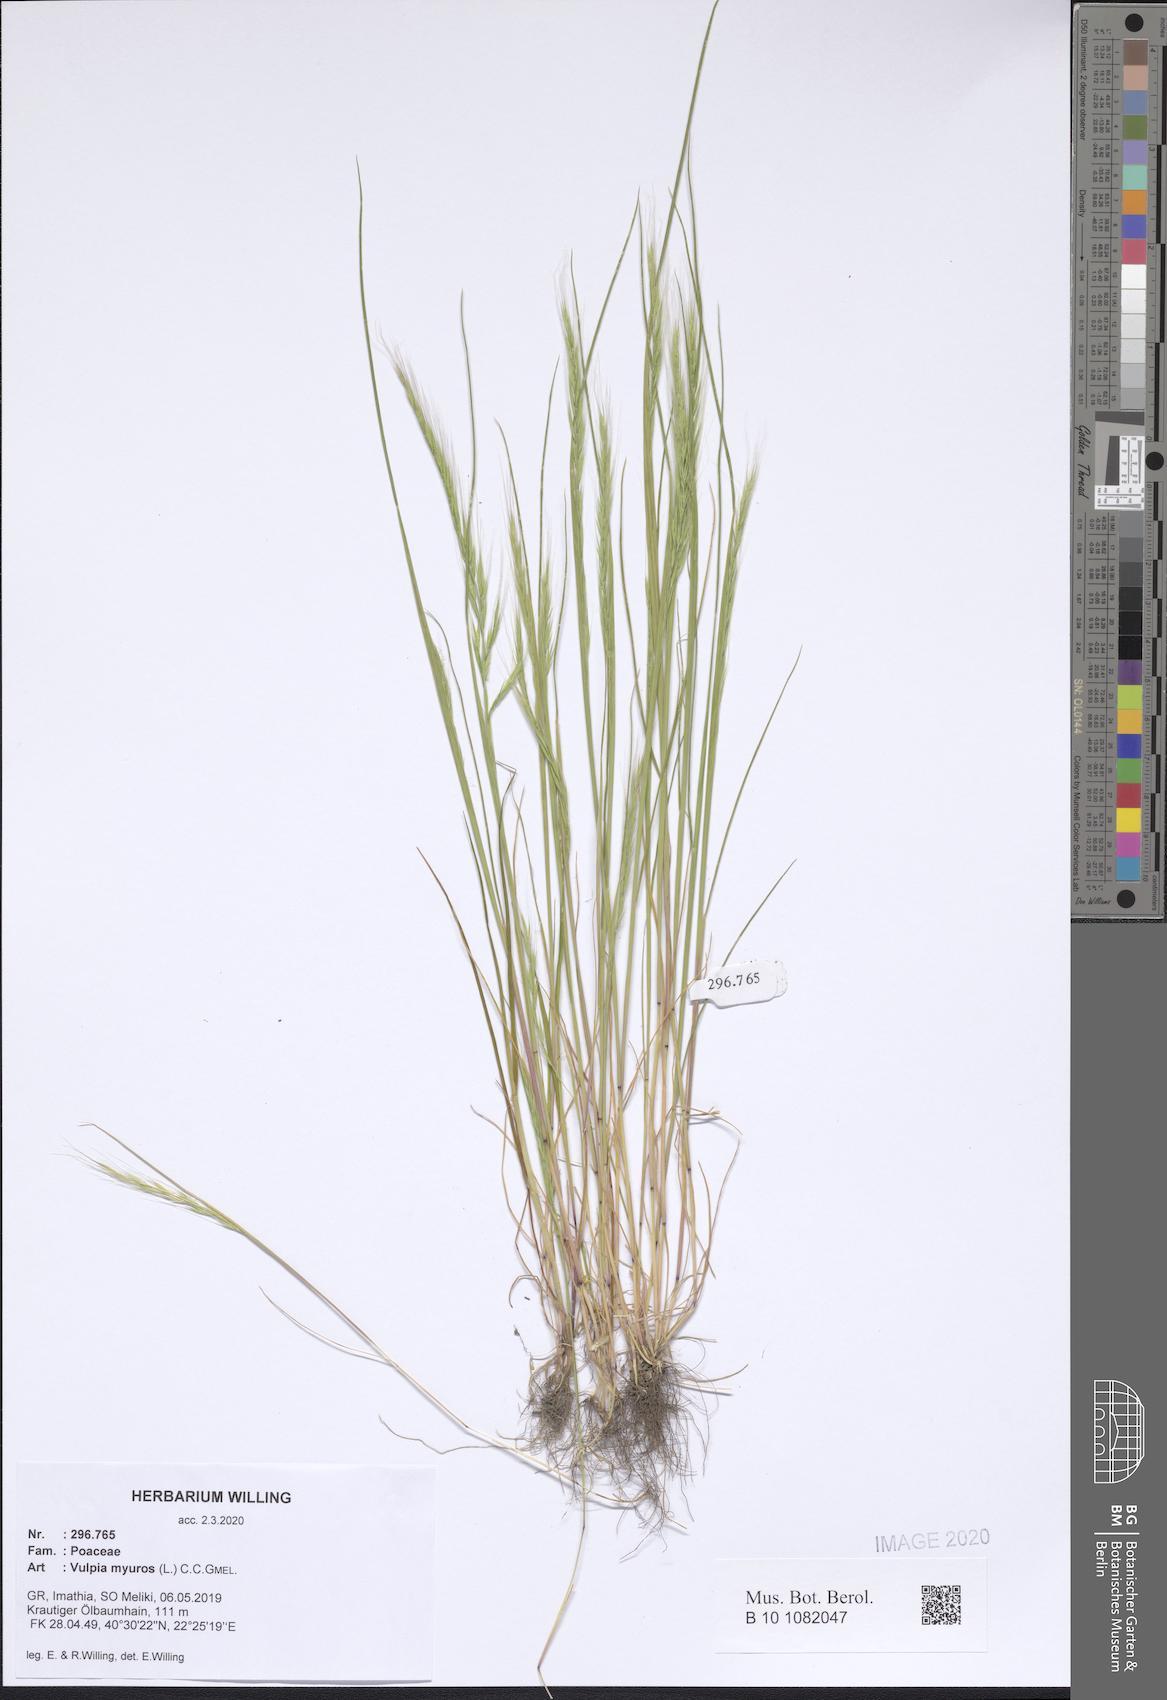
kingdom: Plantae
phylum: Tracheophyta
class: Liliopsida
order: Poales
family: Poaceae
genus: Festuca
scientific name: Festuca myuros
